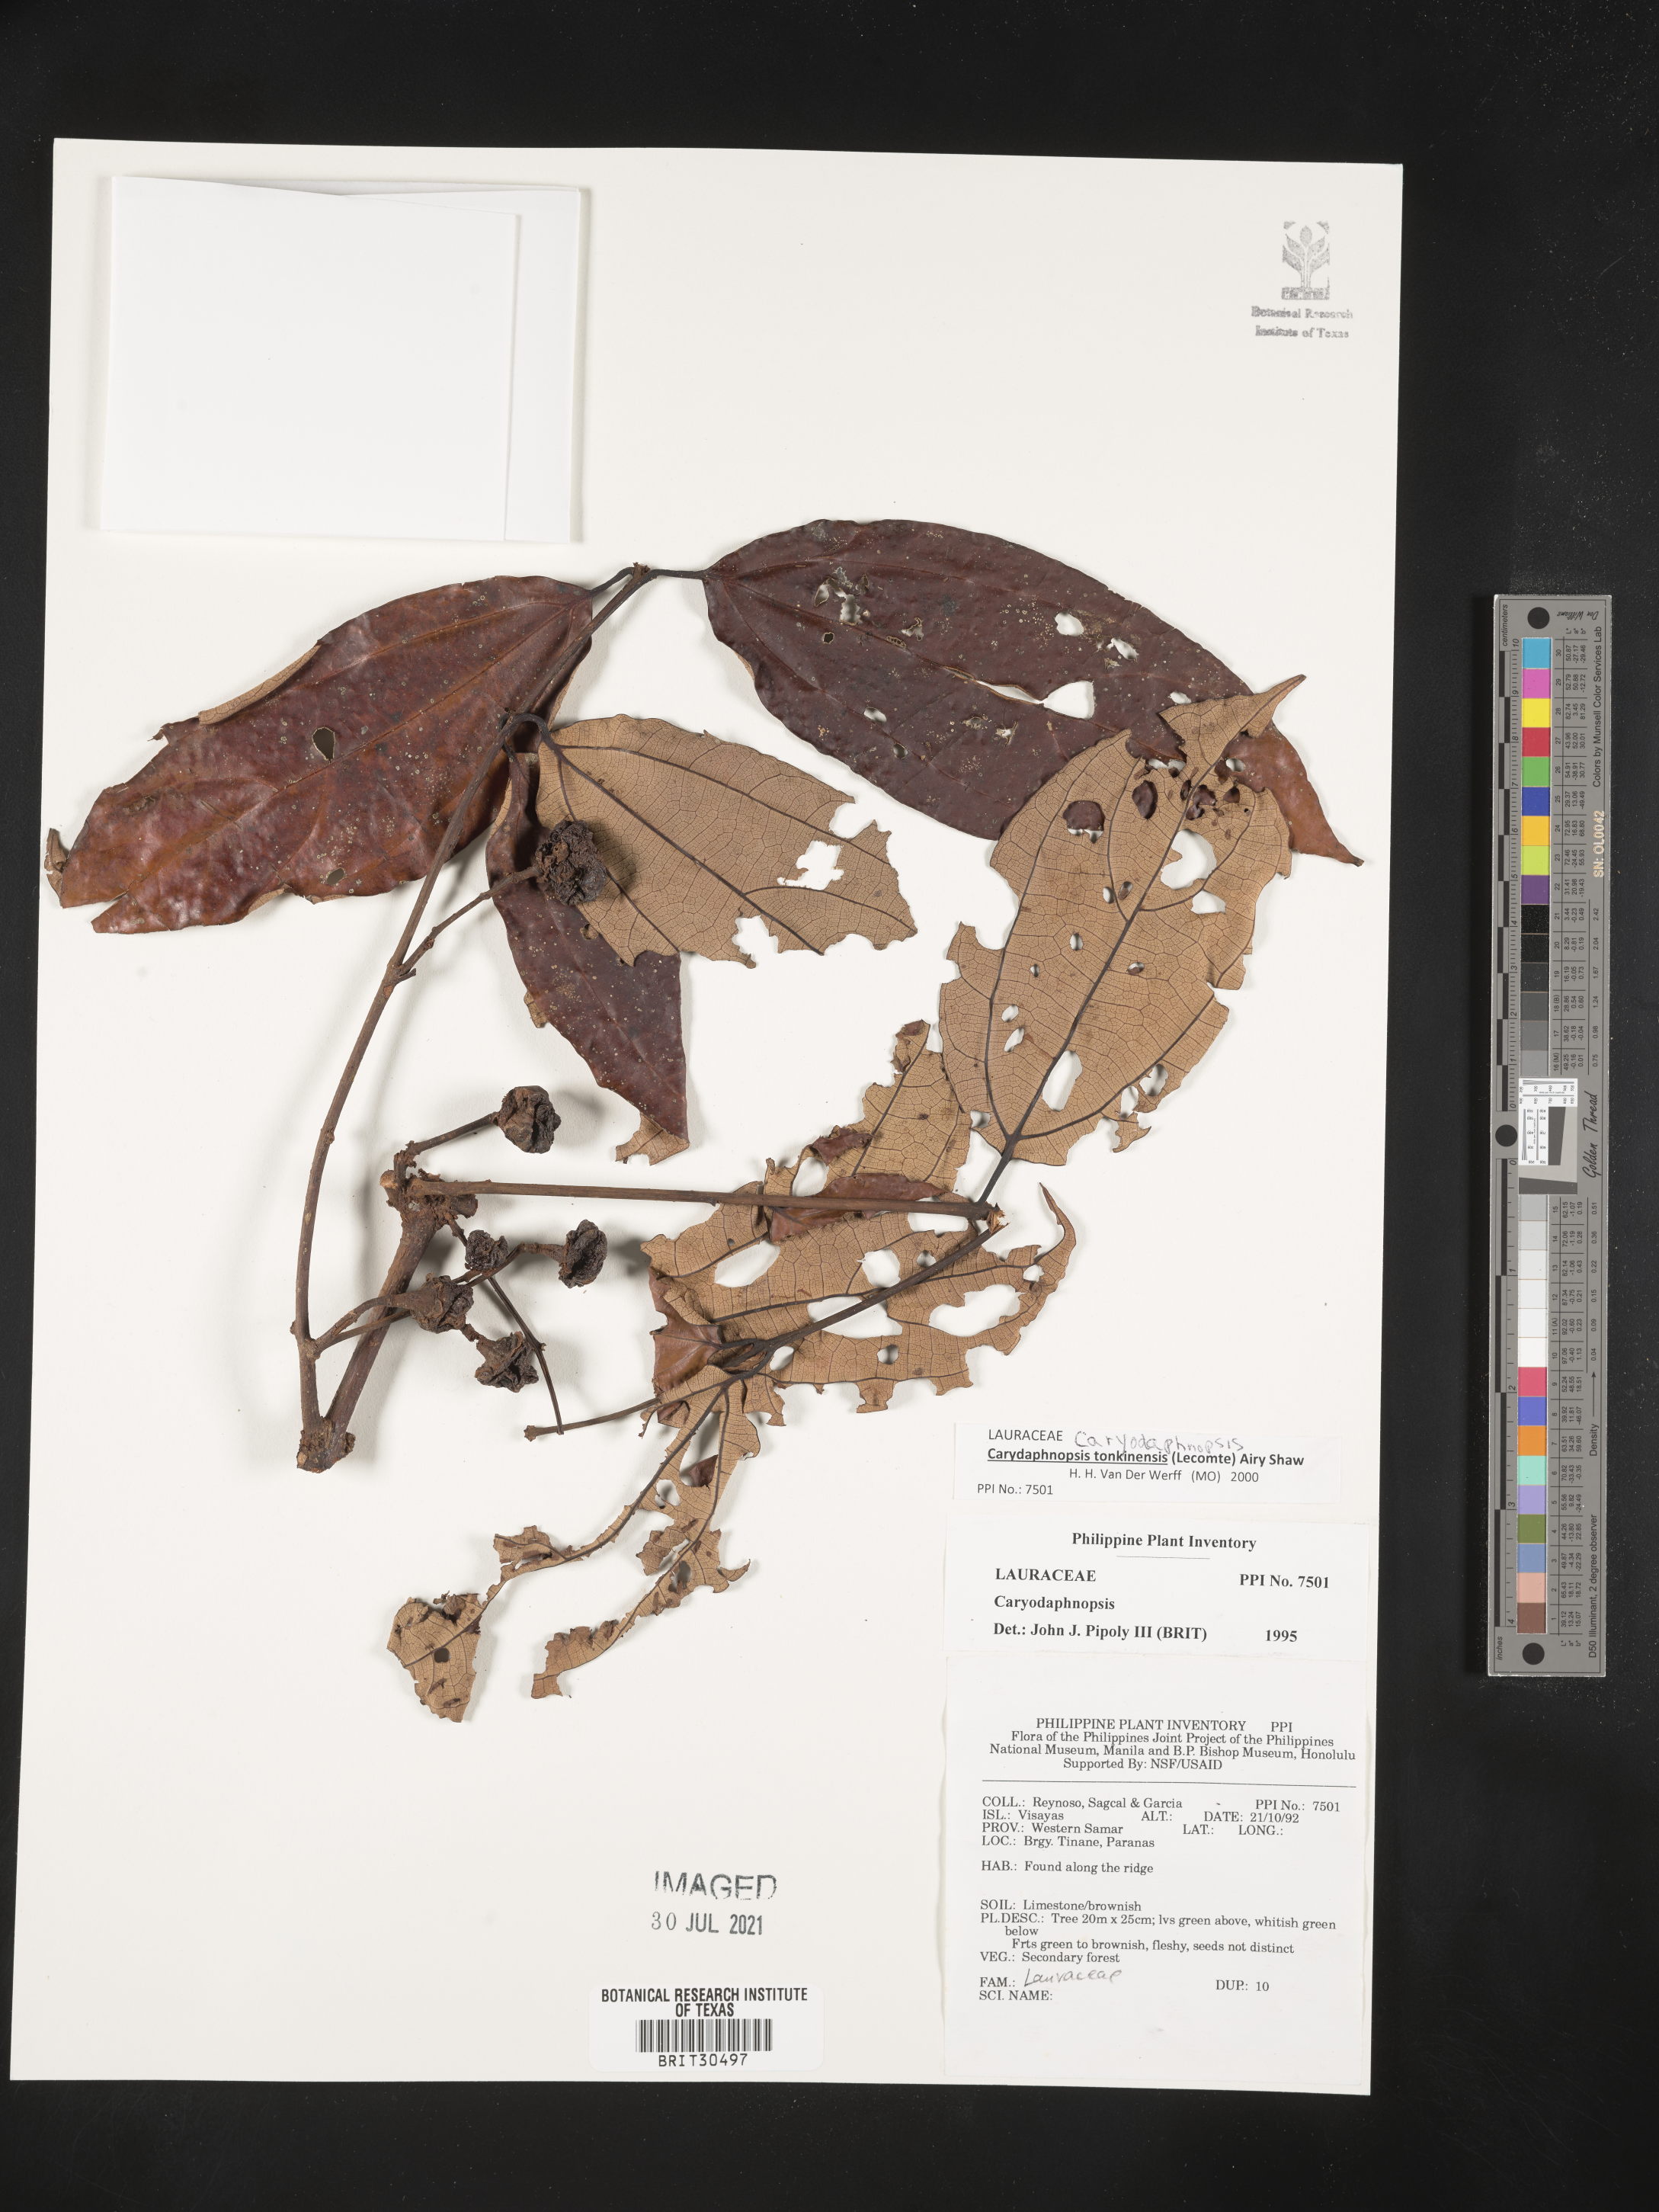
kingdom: Plantae
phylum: Tracheophyta
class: Magnoliopsida
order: Laurales
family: Lauraceae
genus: Caryodaphnopsis
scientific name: Caryodaphnopsis
